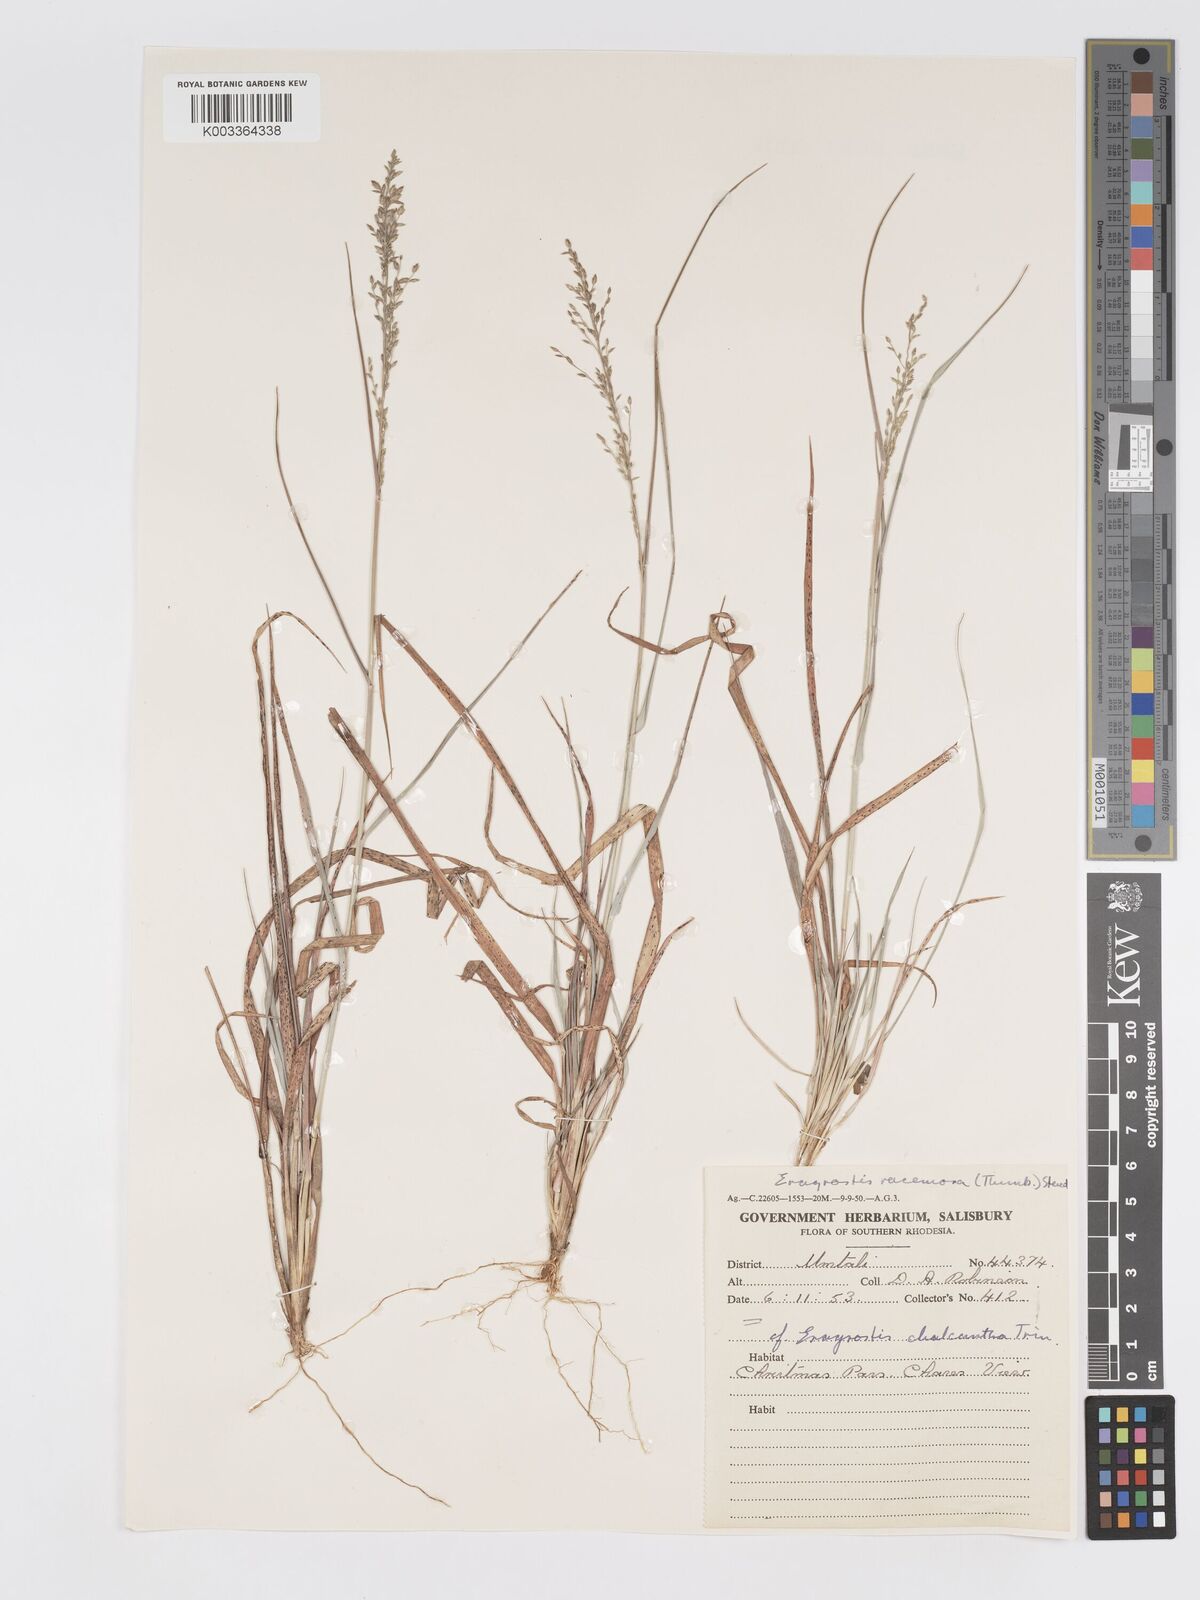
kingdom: Plantae
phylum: Tracheophyta
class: Liliopsida
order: Poales
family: Poaceae
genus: Eragrostis
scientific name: Eragrostis racemosa
